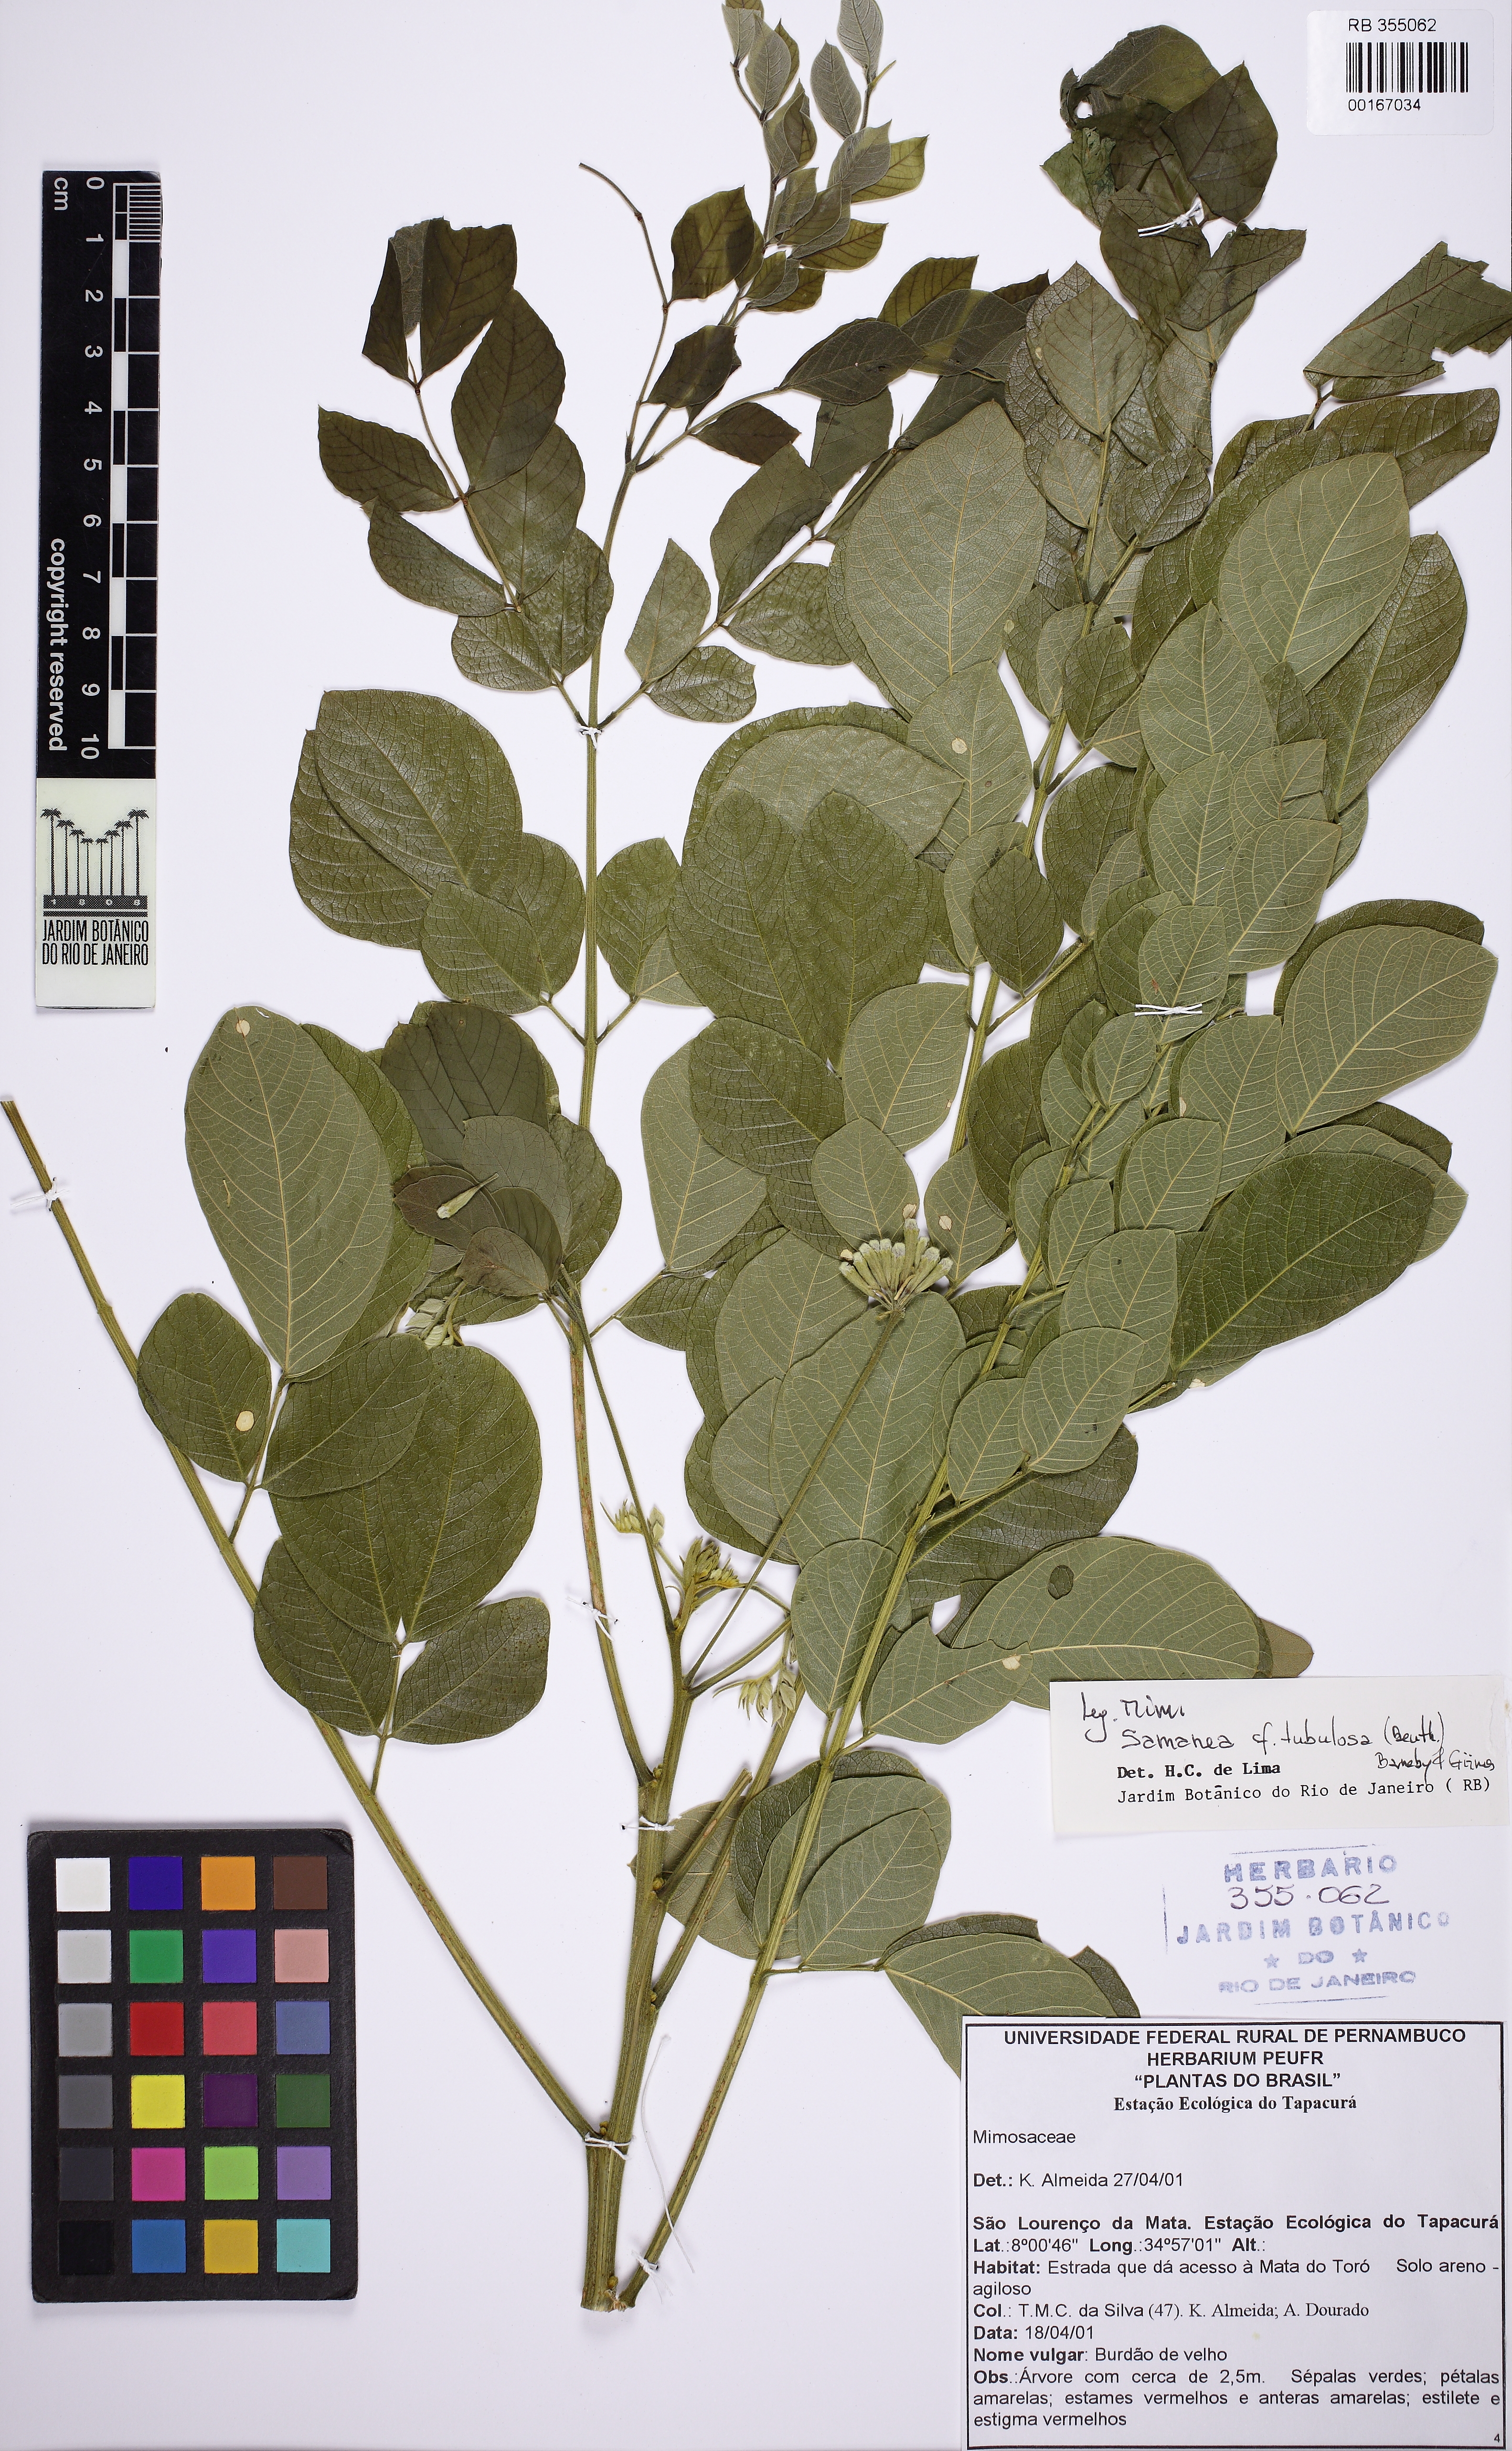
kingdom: Plantae
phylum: Tracheophyta
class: Magnoliopsida
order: Fabales
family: Fabaceae
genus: Samanea
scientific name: Samanea tubulosa
